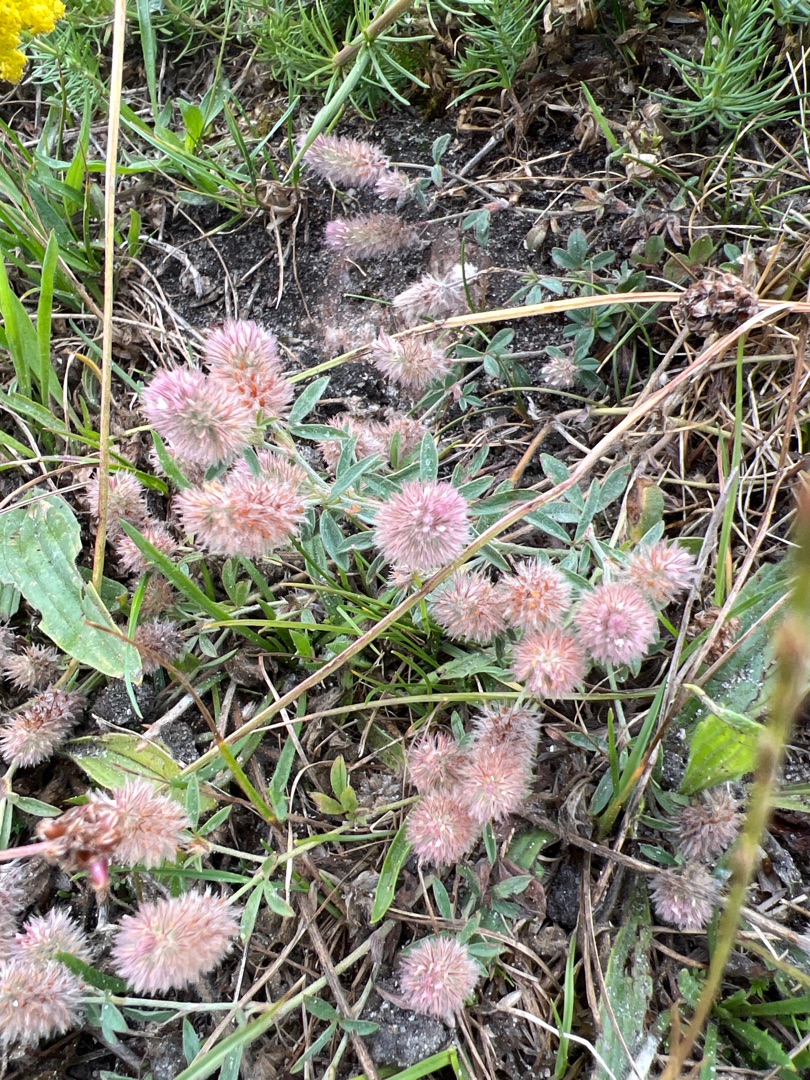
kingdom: Plantae
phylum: Tracheophyta
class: Magnoliopsida
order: Fabales
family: Fabaceae
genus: Trifolium
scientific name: Trifolium arvense
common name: Hare-kløver
